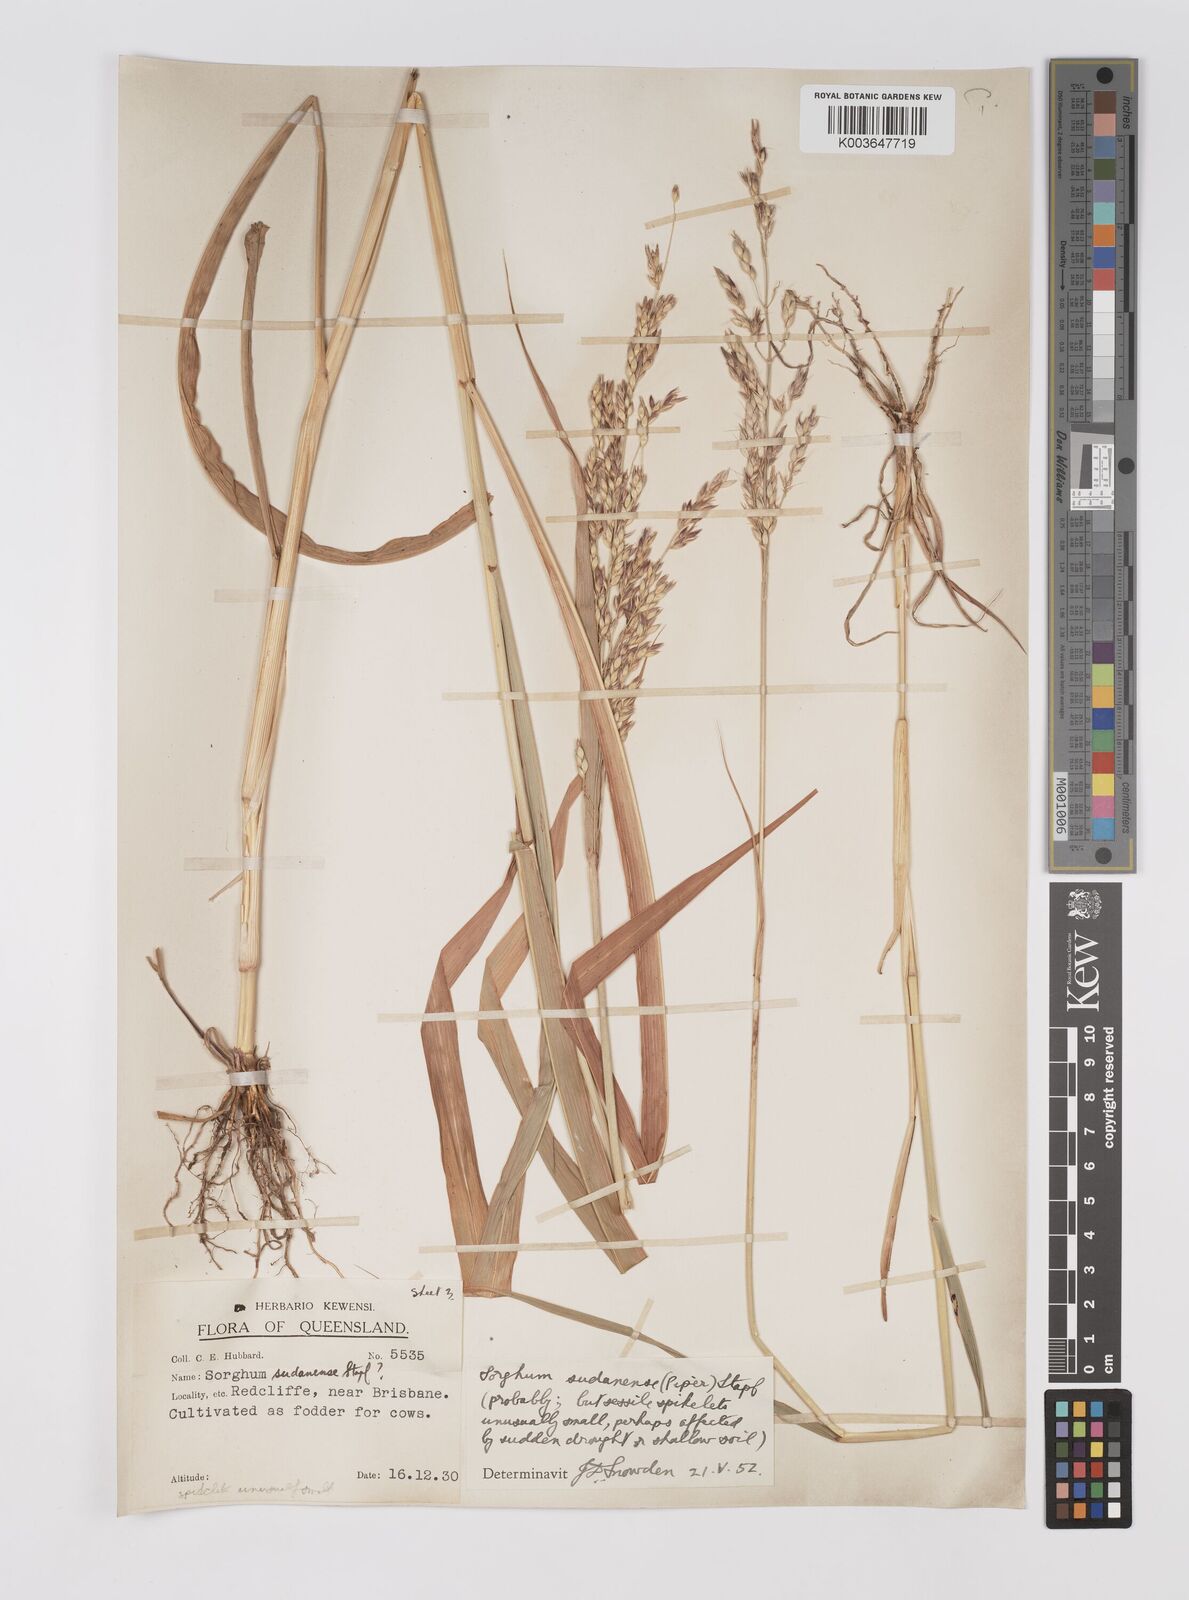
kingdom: Plantae
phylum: Tracheophyta
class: Liliopsida
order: Poales
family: Poaceae
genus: Sorghum
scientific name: Sorghum drummondii
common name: Sudangrass
